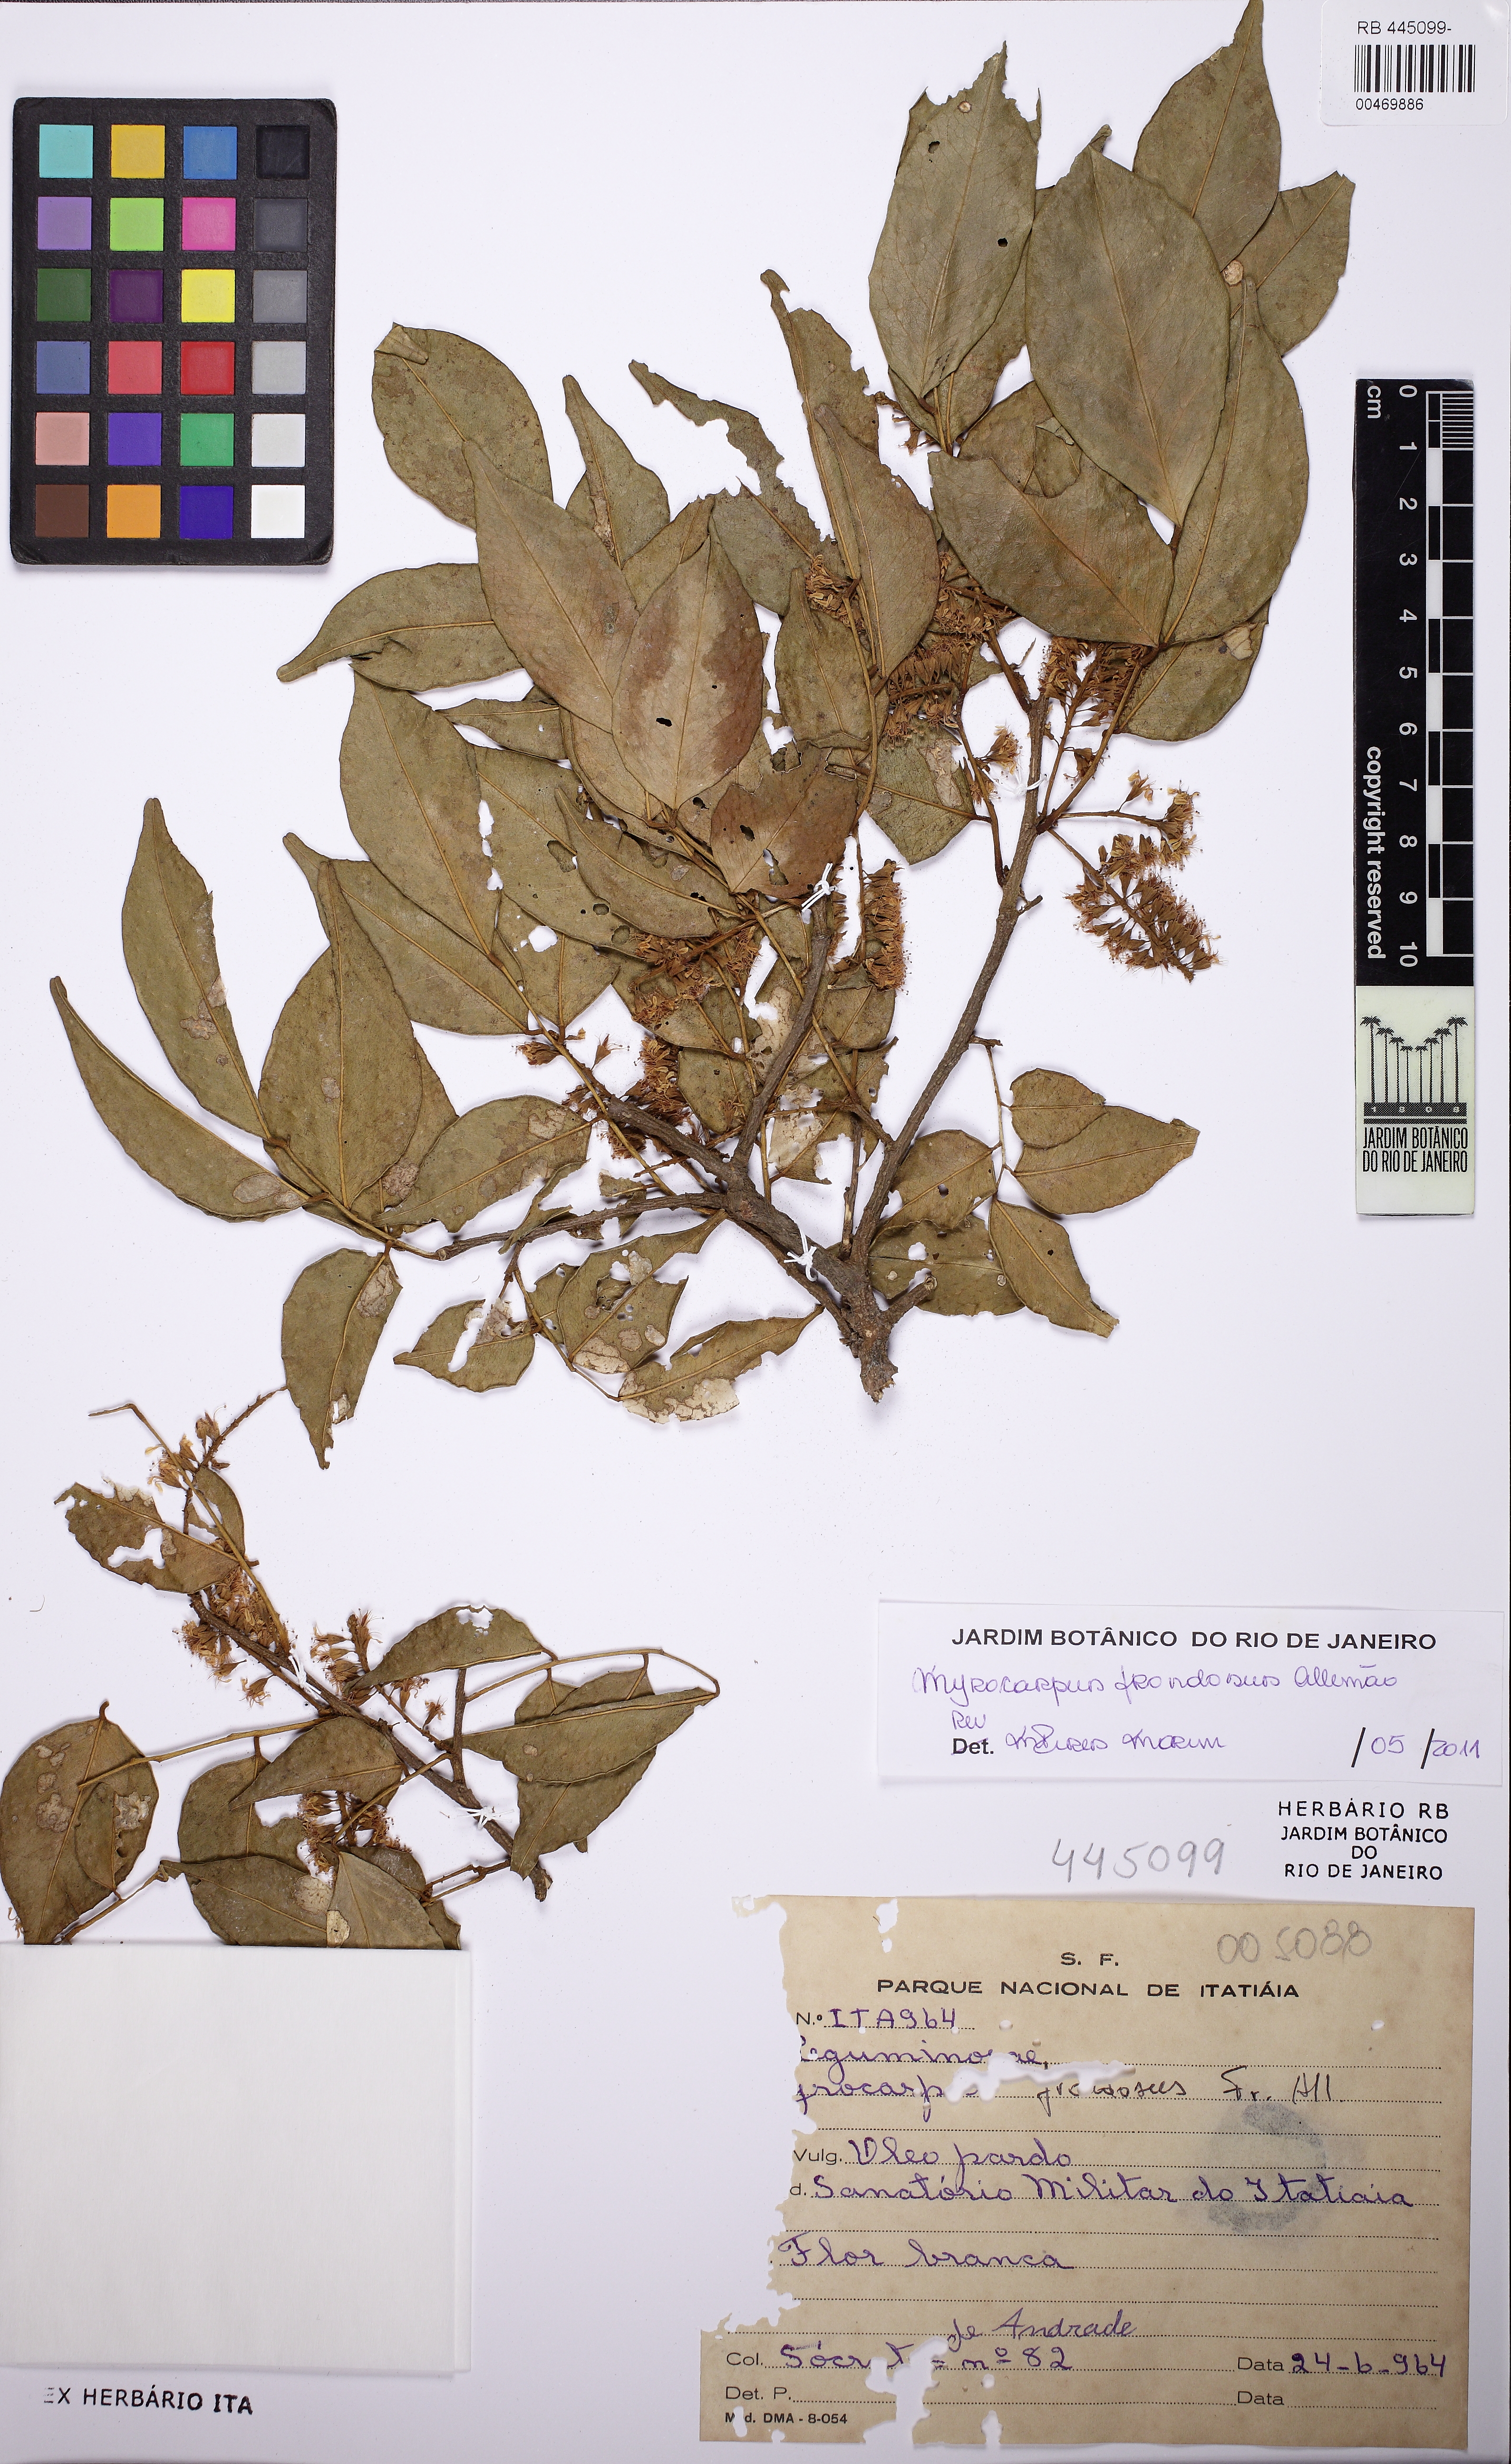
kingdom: Plantae
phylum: Tracheophyta
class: Magnoliopsida
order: Fabales
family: Fabaceae
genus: Myrocarpus
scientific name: Myrocarpus frondosus
